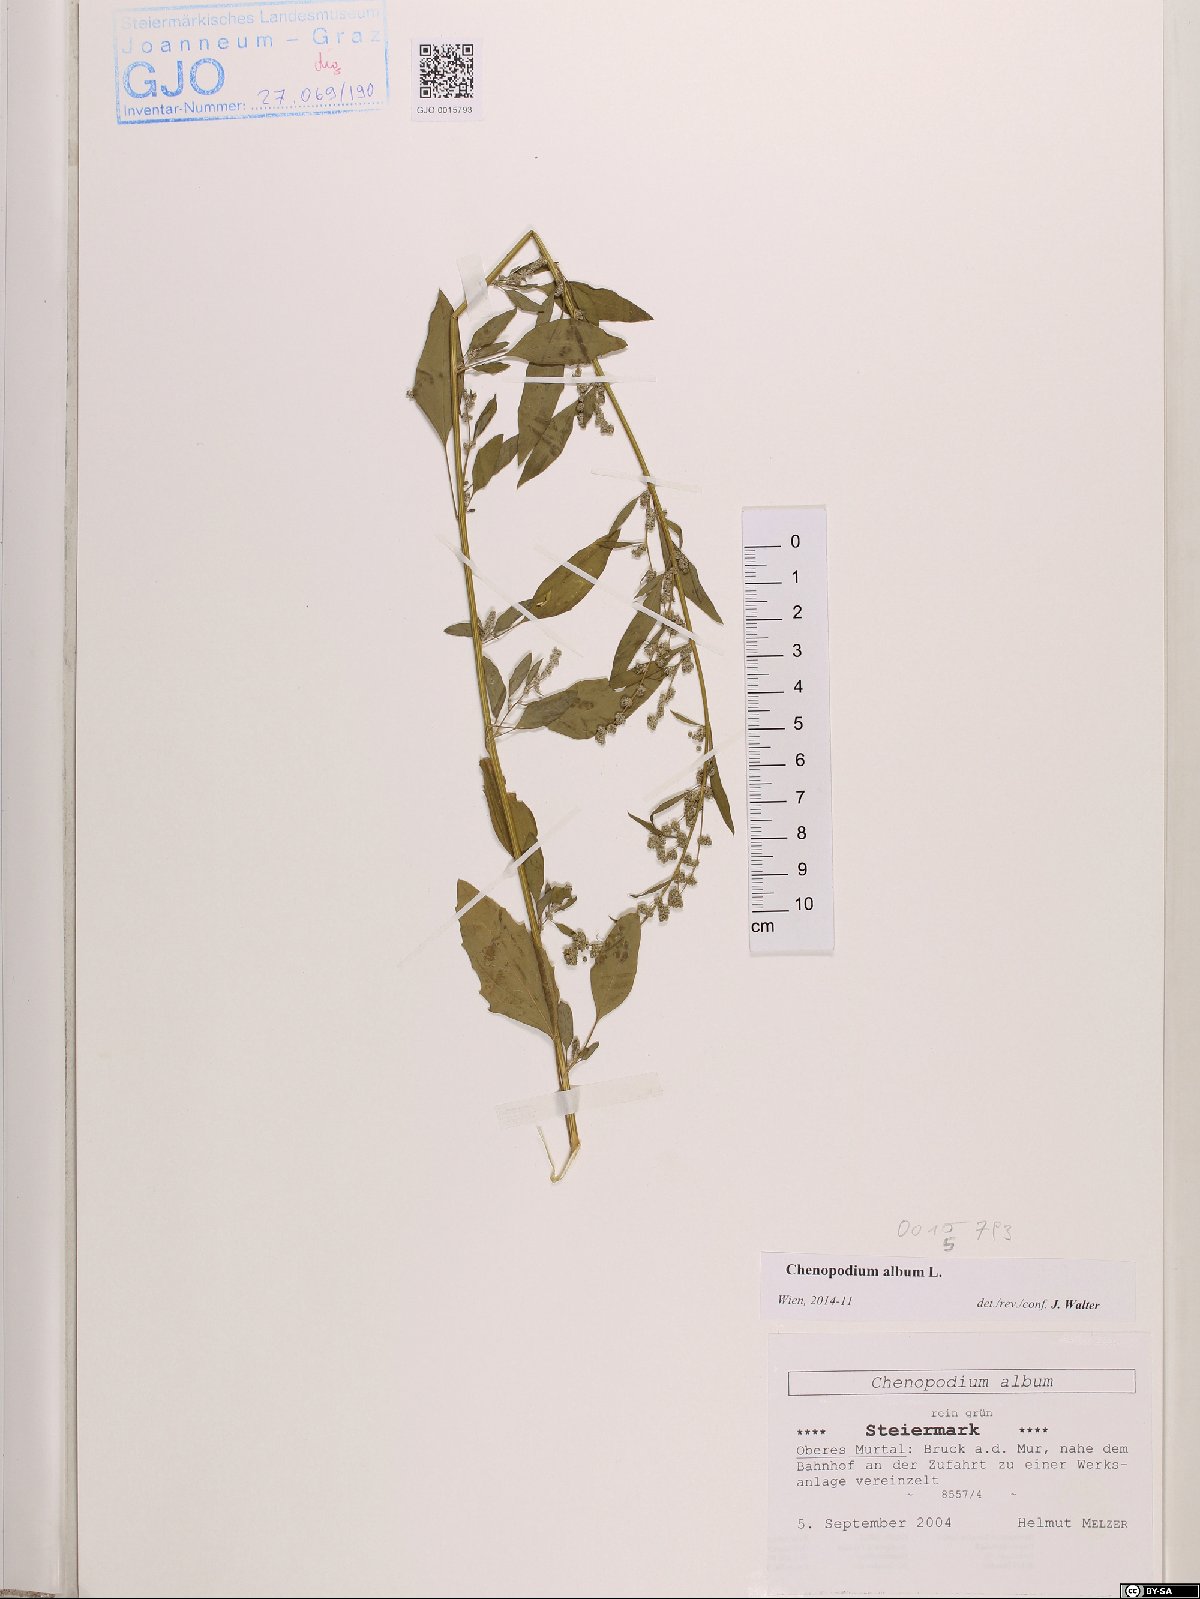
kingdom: Plantae
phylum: Tracheophyta
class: Magnoliopsida
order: Caryophyllales
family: Amaranthaceae
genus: Chenopodium
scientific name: Chenopodium album
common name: Fat-hen
